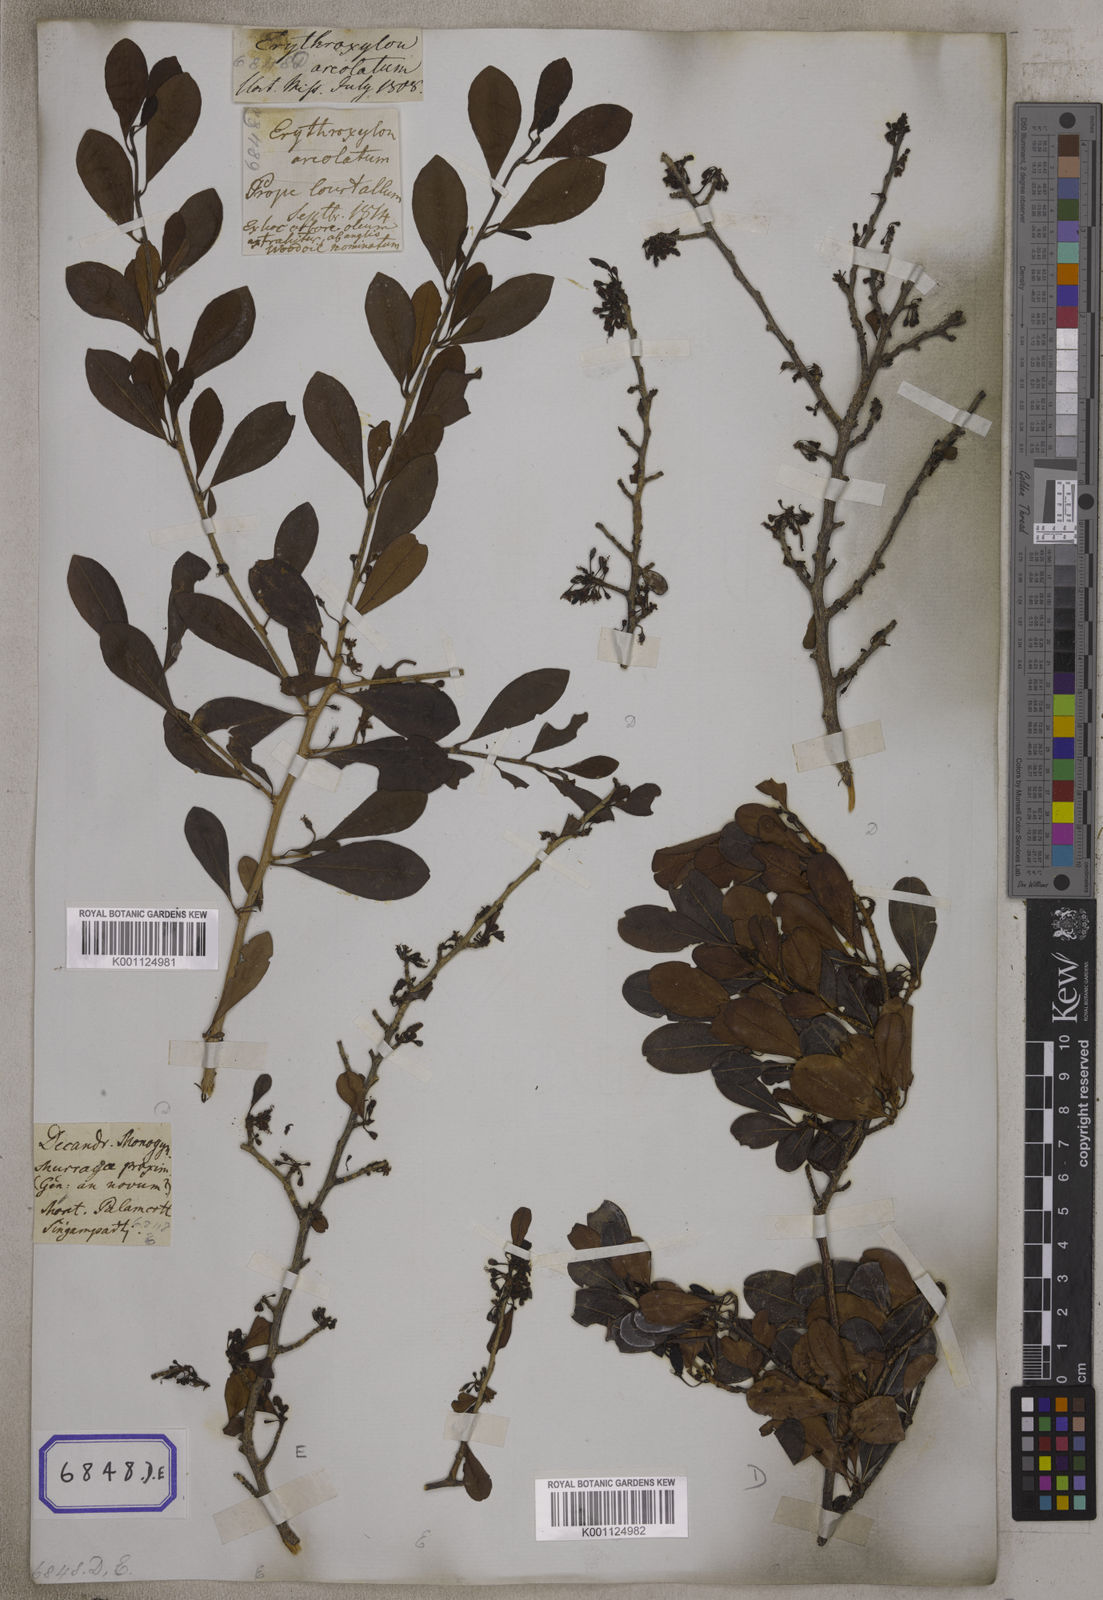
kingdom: Plantae
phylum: Tracheophyta
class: Magnoliopsida
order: Malpighiales
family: Erythroxylaceae
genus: Erythroxylum
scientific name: Erythroxylum monogynum
